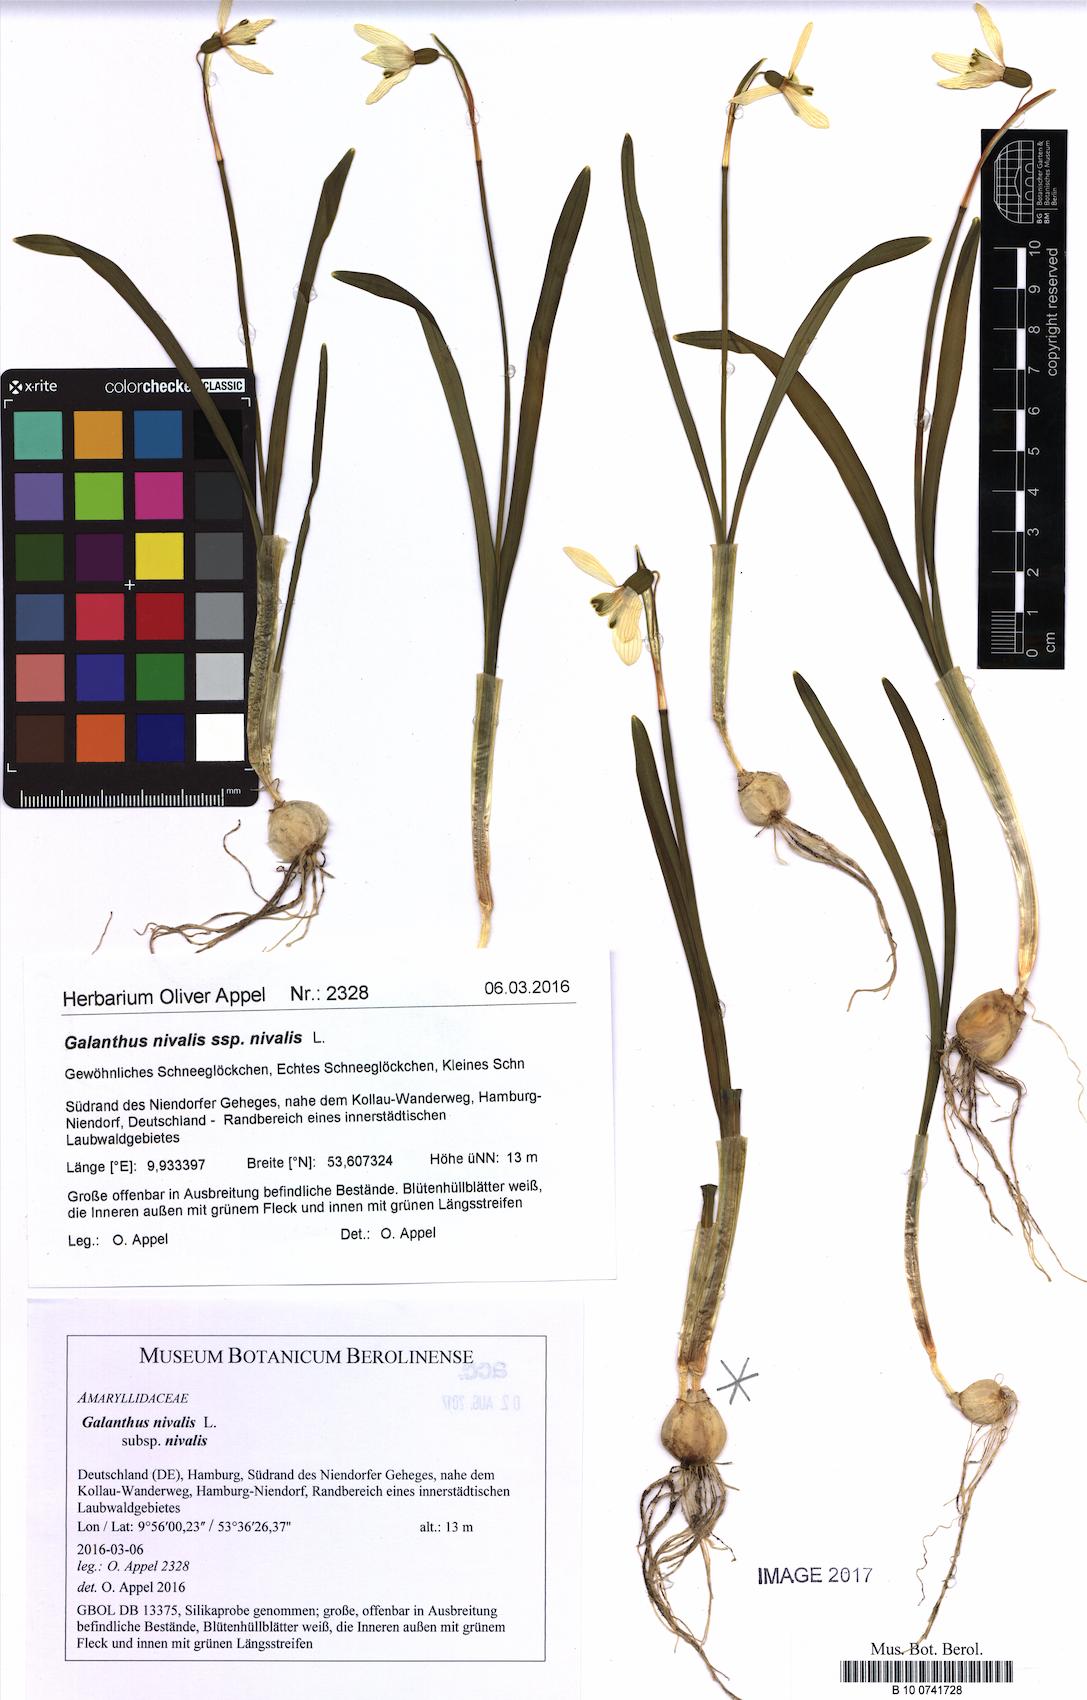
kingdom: Plantae
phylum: Tracheophyta
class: Liliopsida
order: Asparagales
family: Amaryllidaceae
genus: Galanthus
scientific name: Galanthus nivalis
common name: Snowdrop
